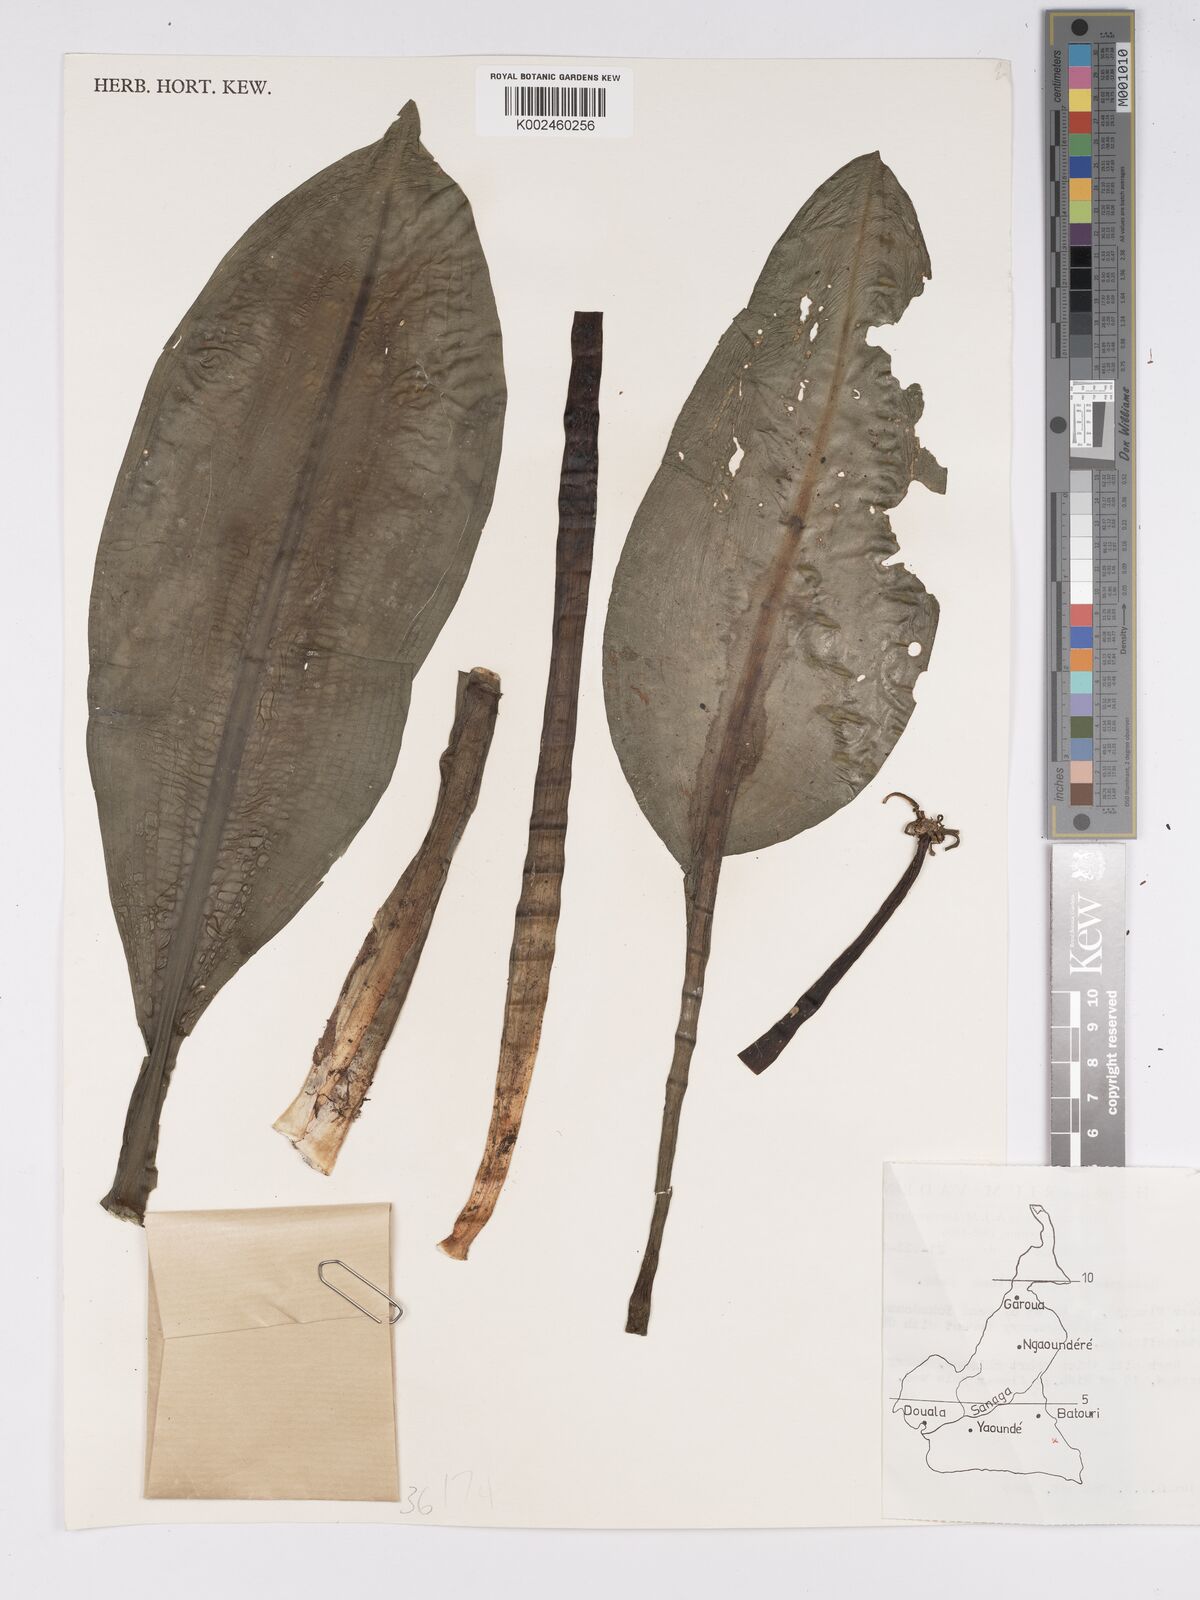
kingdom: Plantae
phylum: Tracheophyta
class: Liliopsida
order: Asparagales
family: Amaryllidaceae
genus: Scadoxus
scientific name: Scadoxus cinnabarinus
